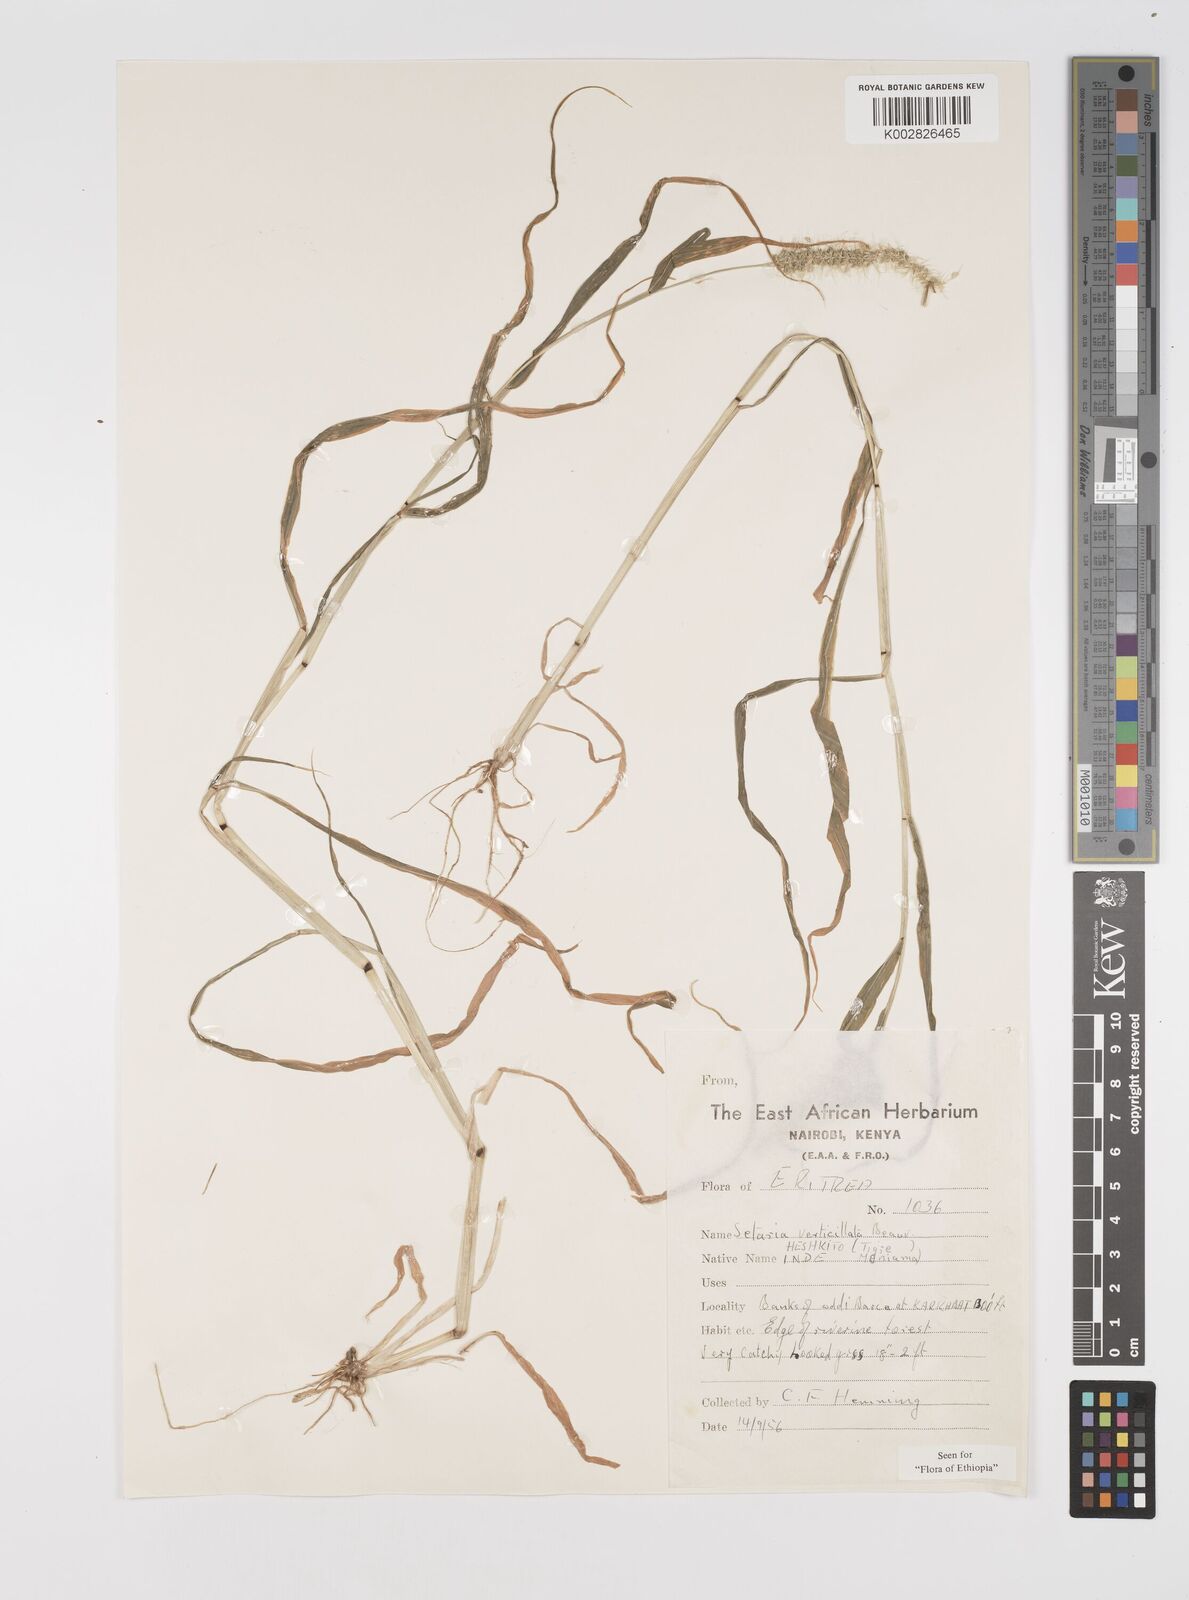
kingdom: Plantae
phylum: Tracheophyta
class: Liliopsida
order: Poales
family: Poaceae
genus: Setaria
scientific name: Setaria verticillata
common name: Hooked bristlegrass
